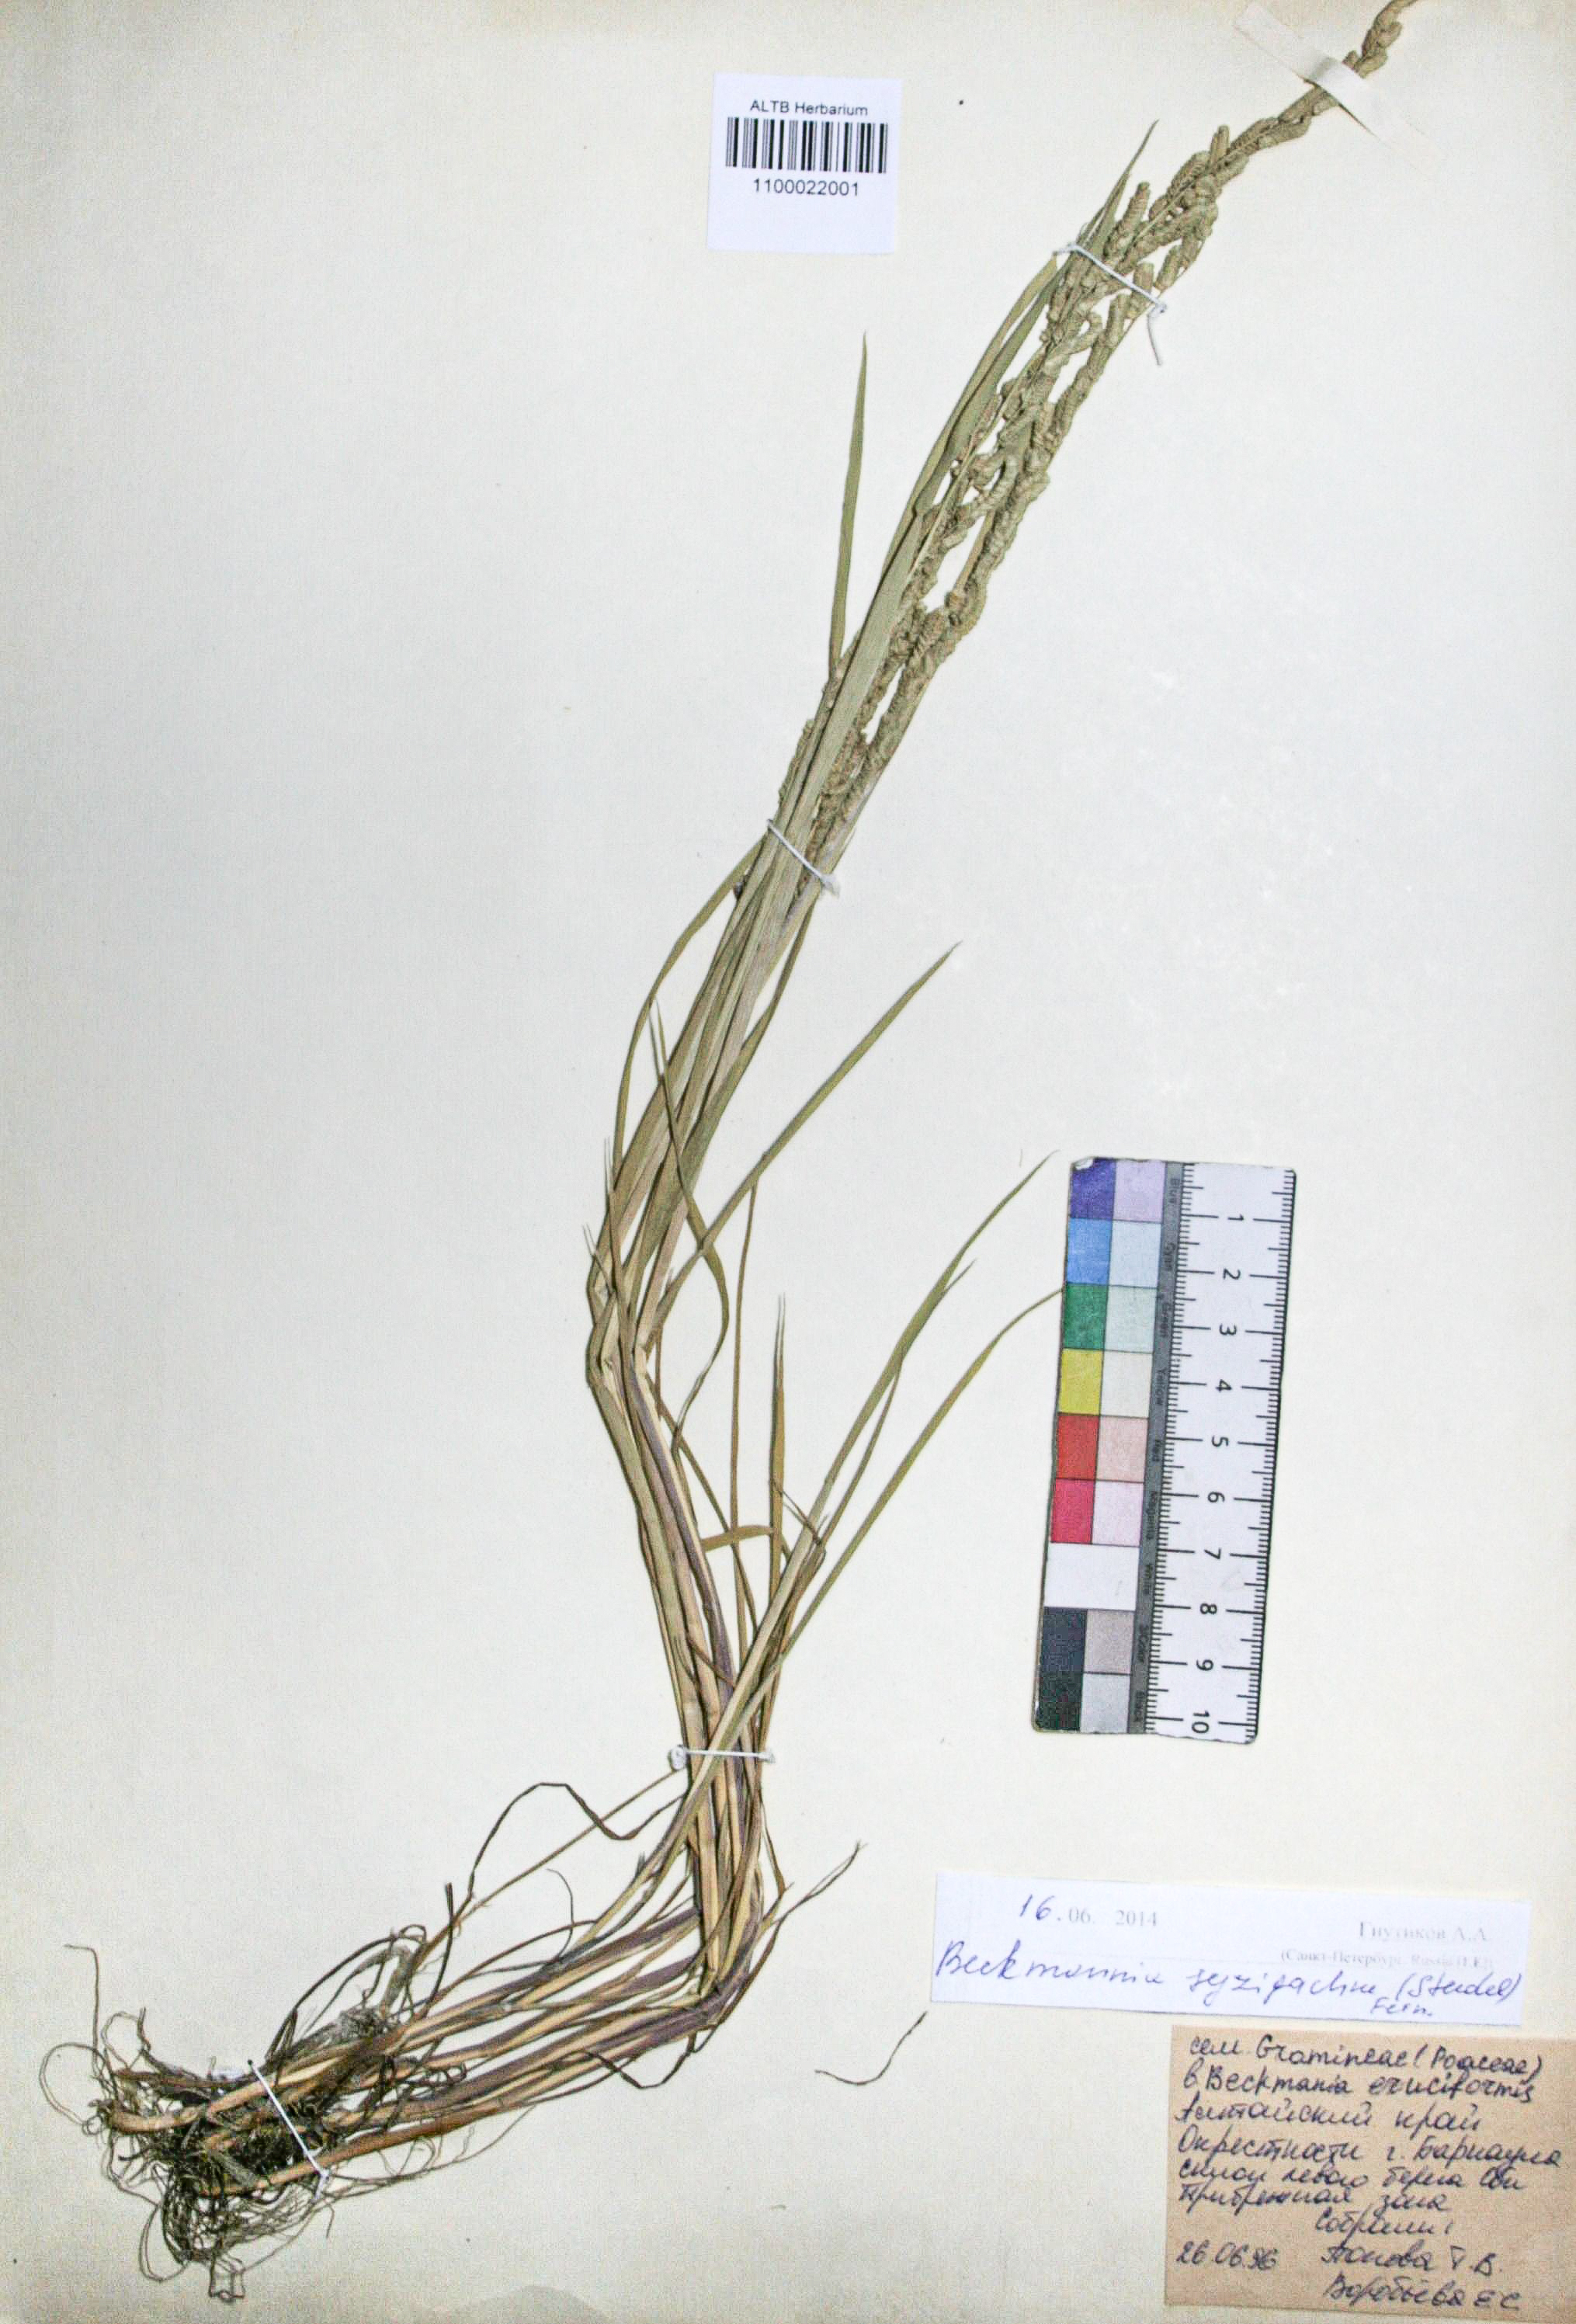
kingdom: Plantae
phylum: Tracheophyta
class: Liliopsida
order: Poales
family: Poaceae
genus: Beckmannia
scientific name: Beckmannia syzigachne
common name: American slough-grass
